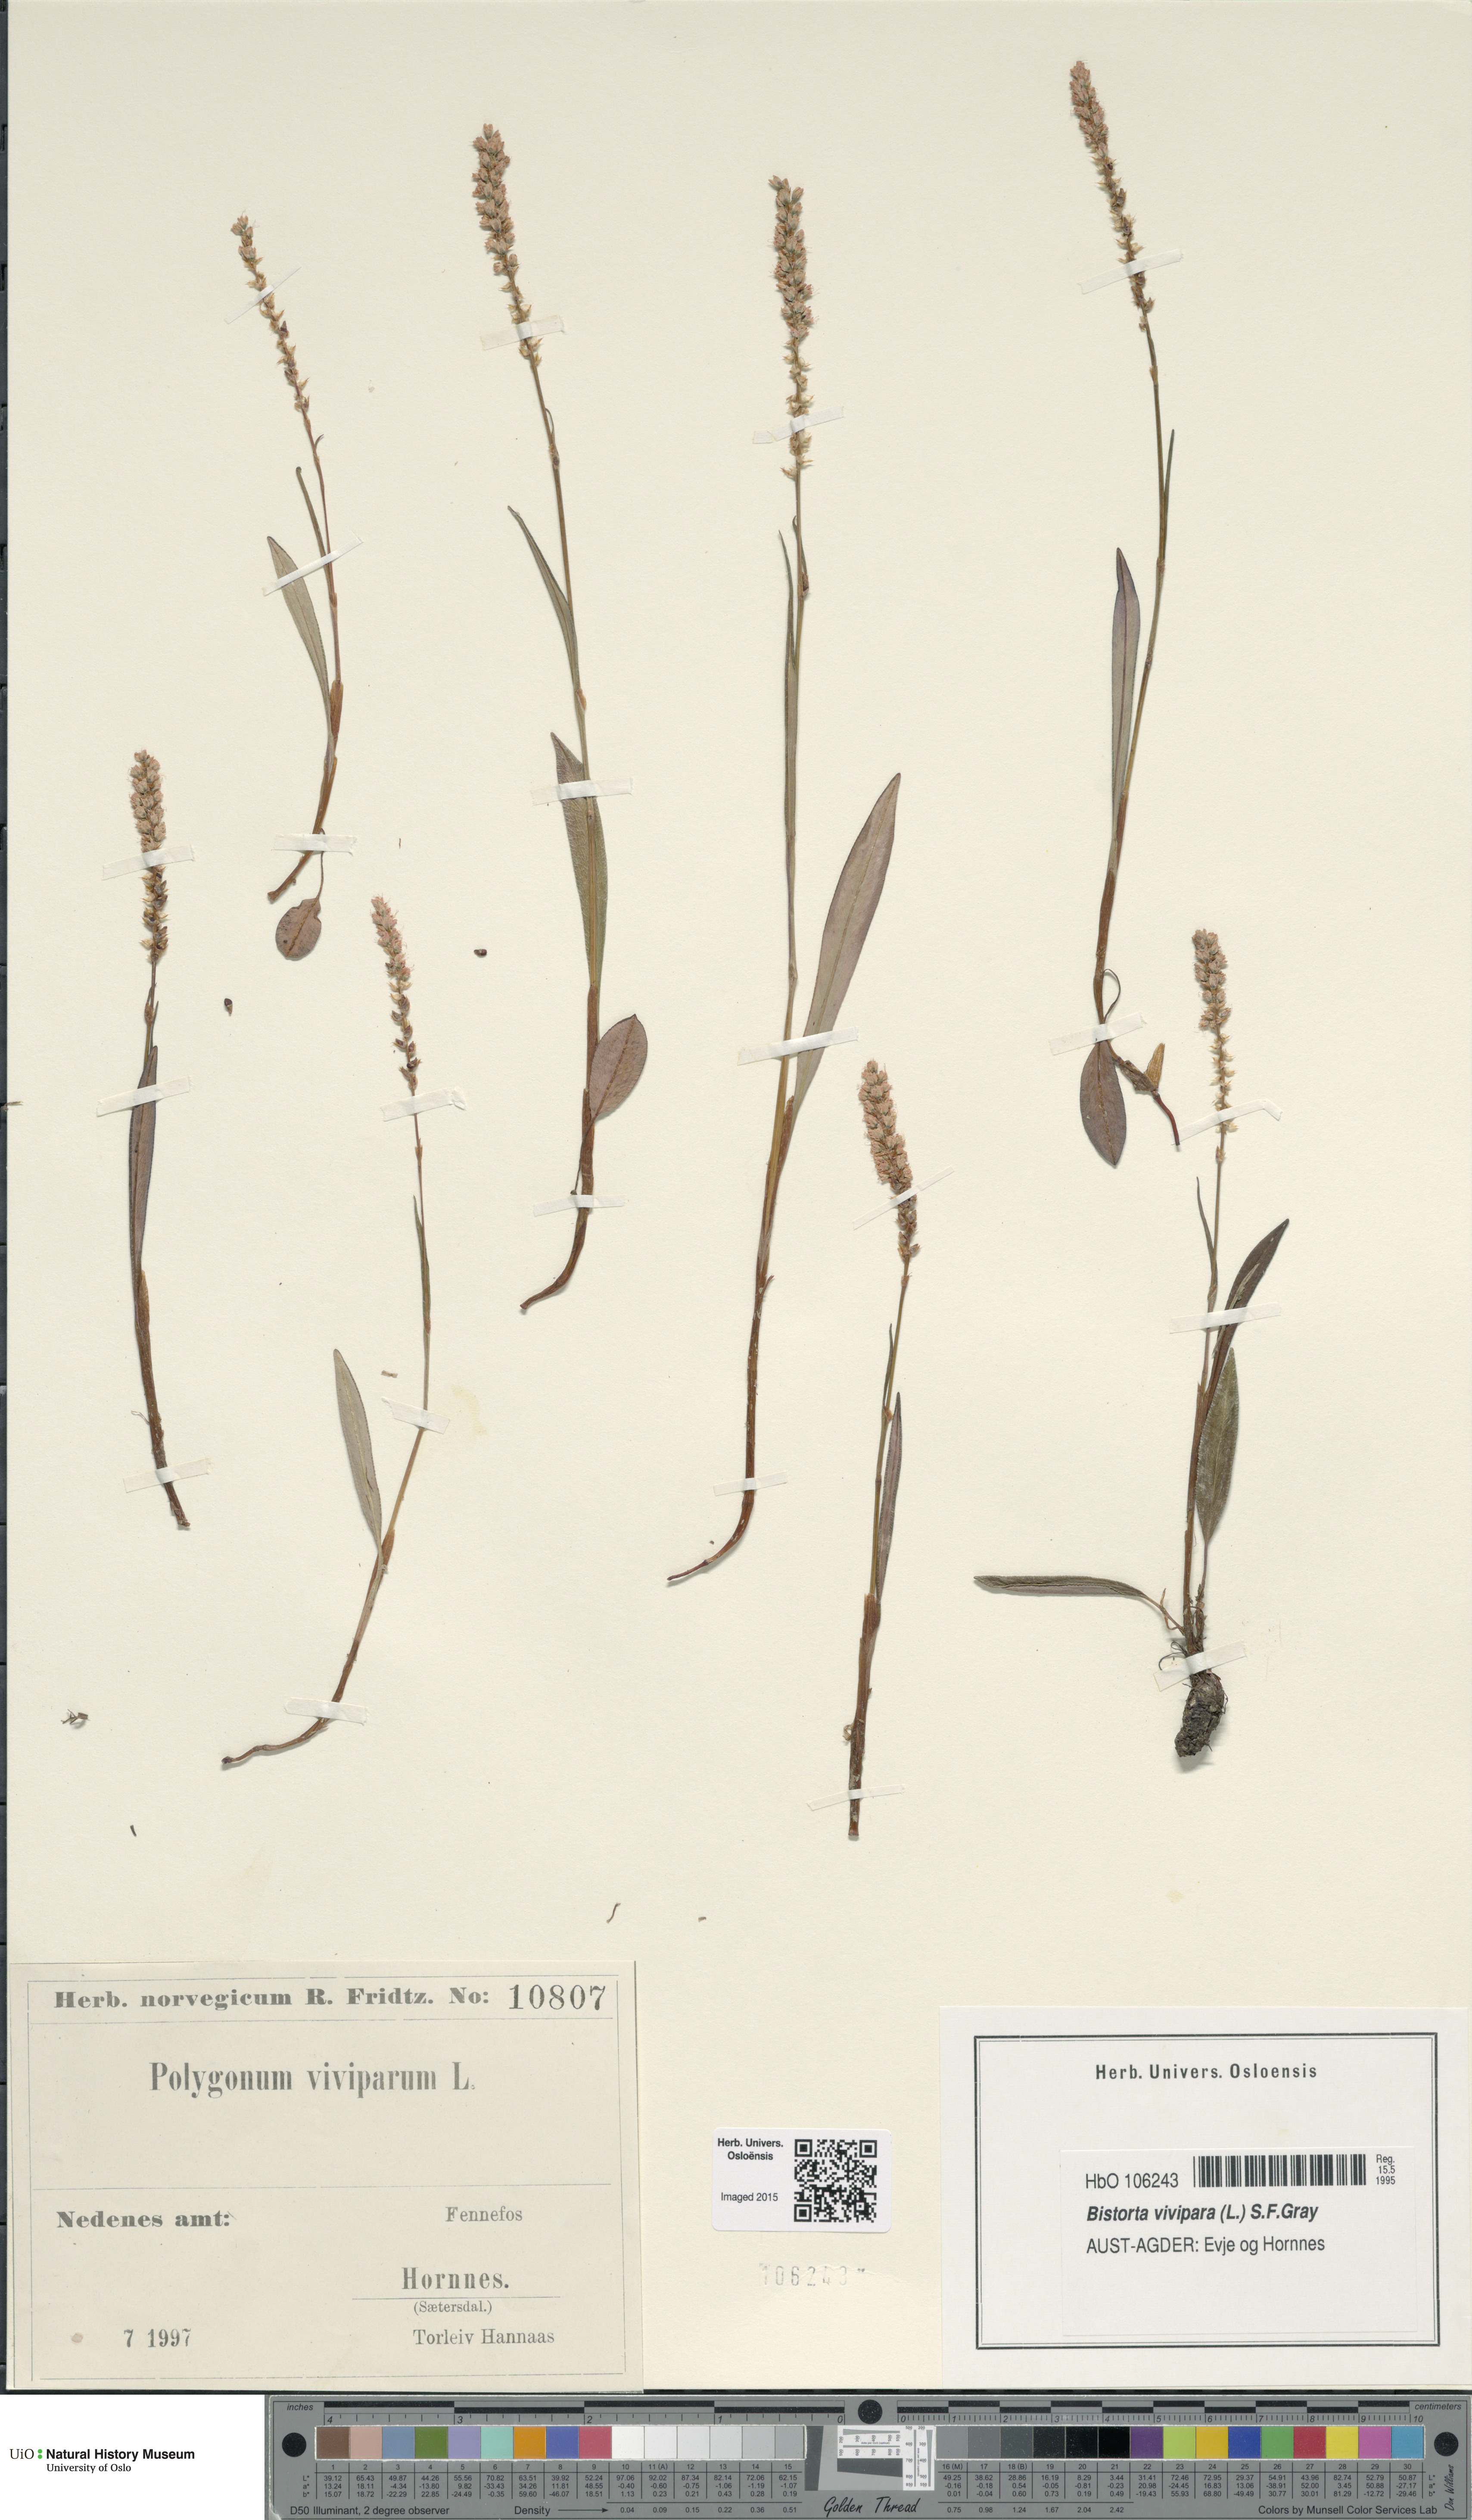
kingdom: Plantae
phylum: Tracheophyta
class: Magnoliopsida
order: Caryophyllales
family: Polygonaceae
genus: Bistorta
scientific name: Bistorta vivipara
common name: Alpine bistort
